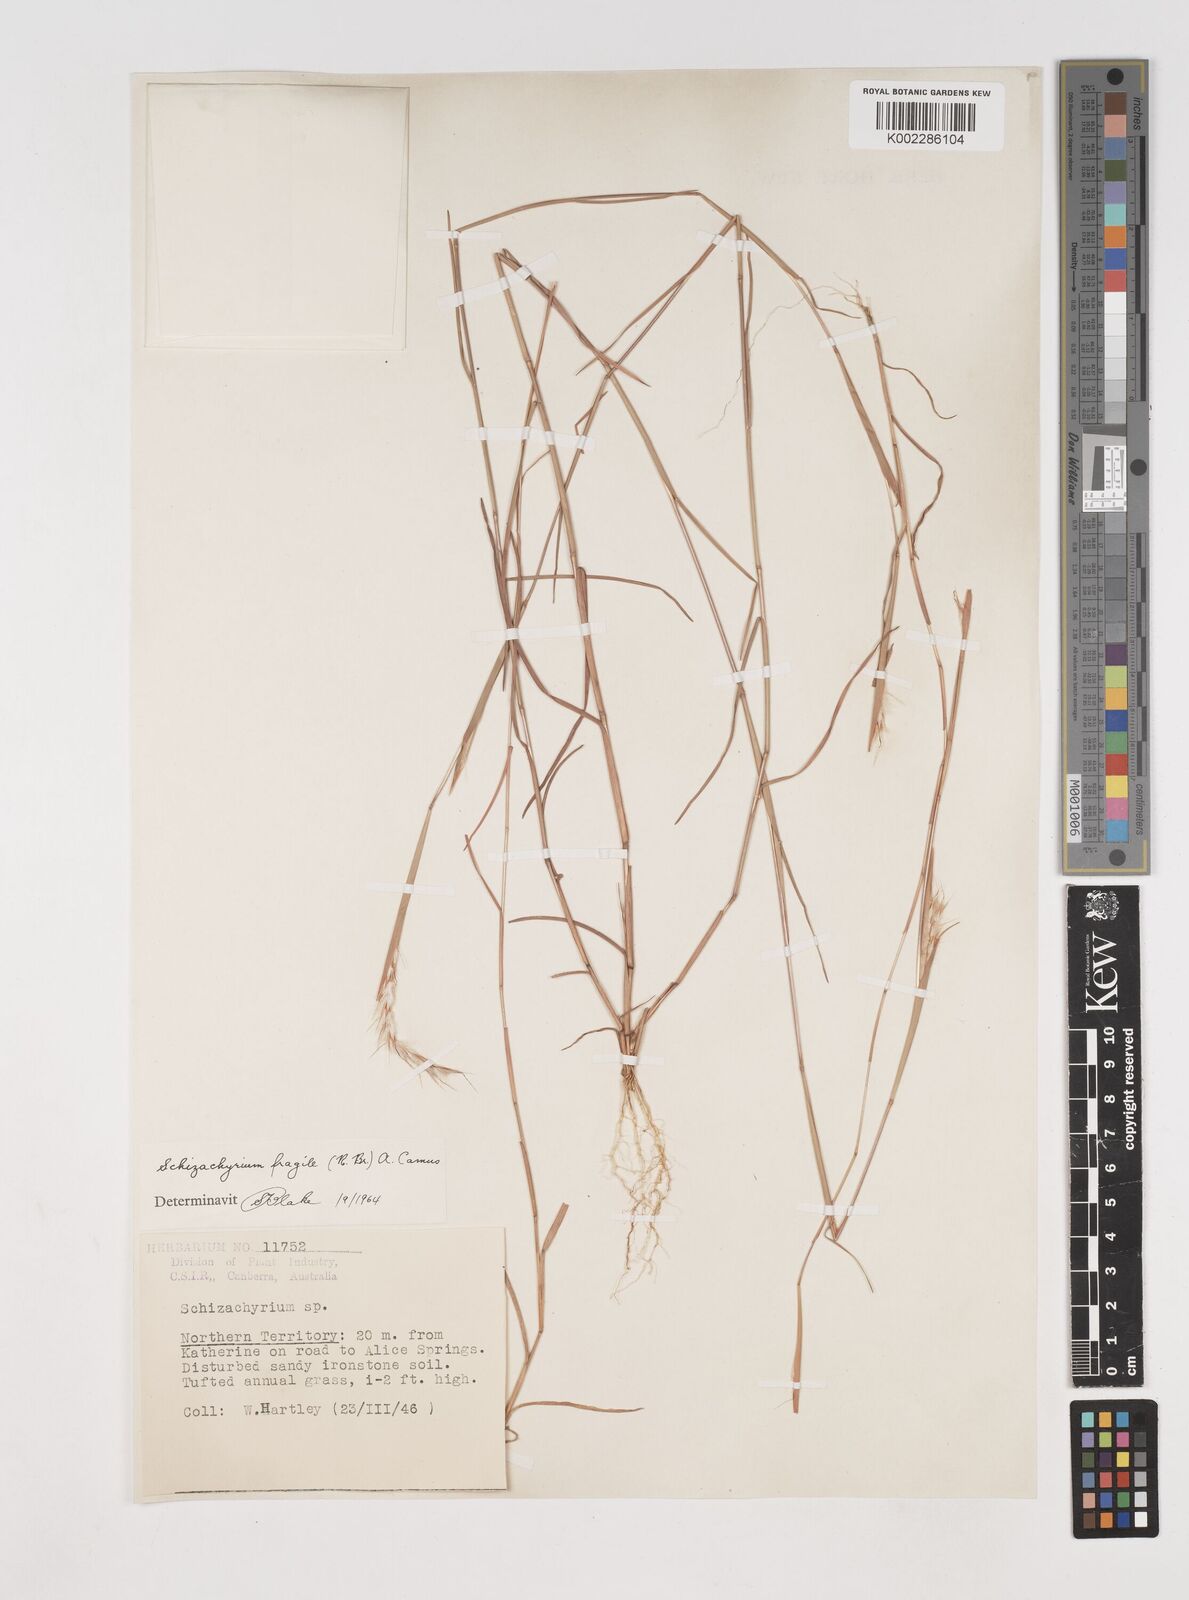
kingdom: Plantae
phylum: Tracheophyta
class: Liliopsida
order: Poales
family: Poaceae
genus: Schizachyrium
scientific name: Schizachyrium fragile
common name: Red spathe grass
